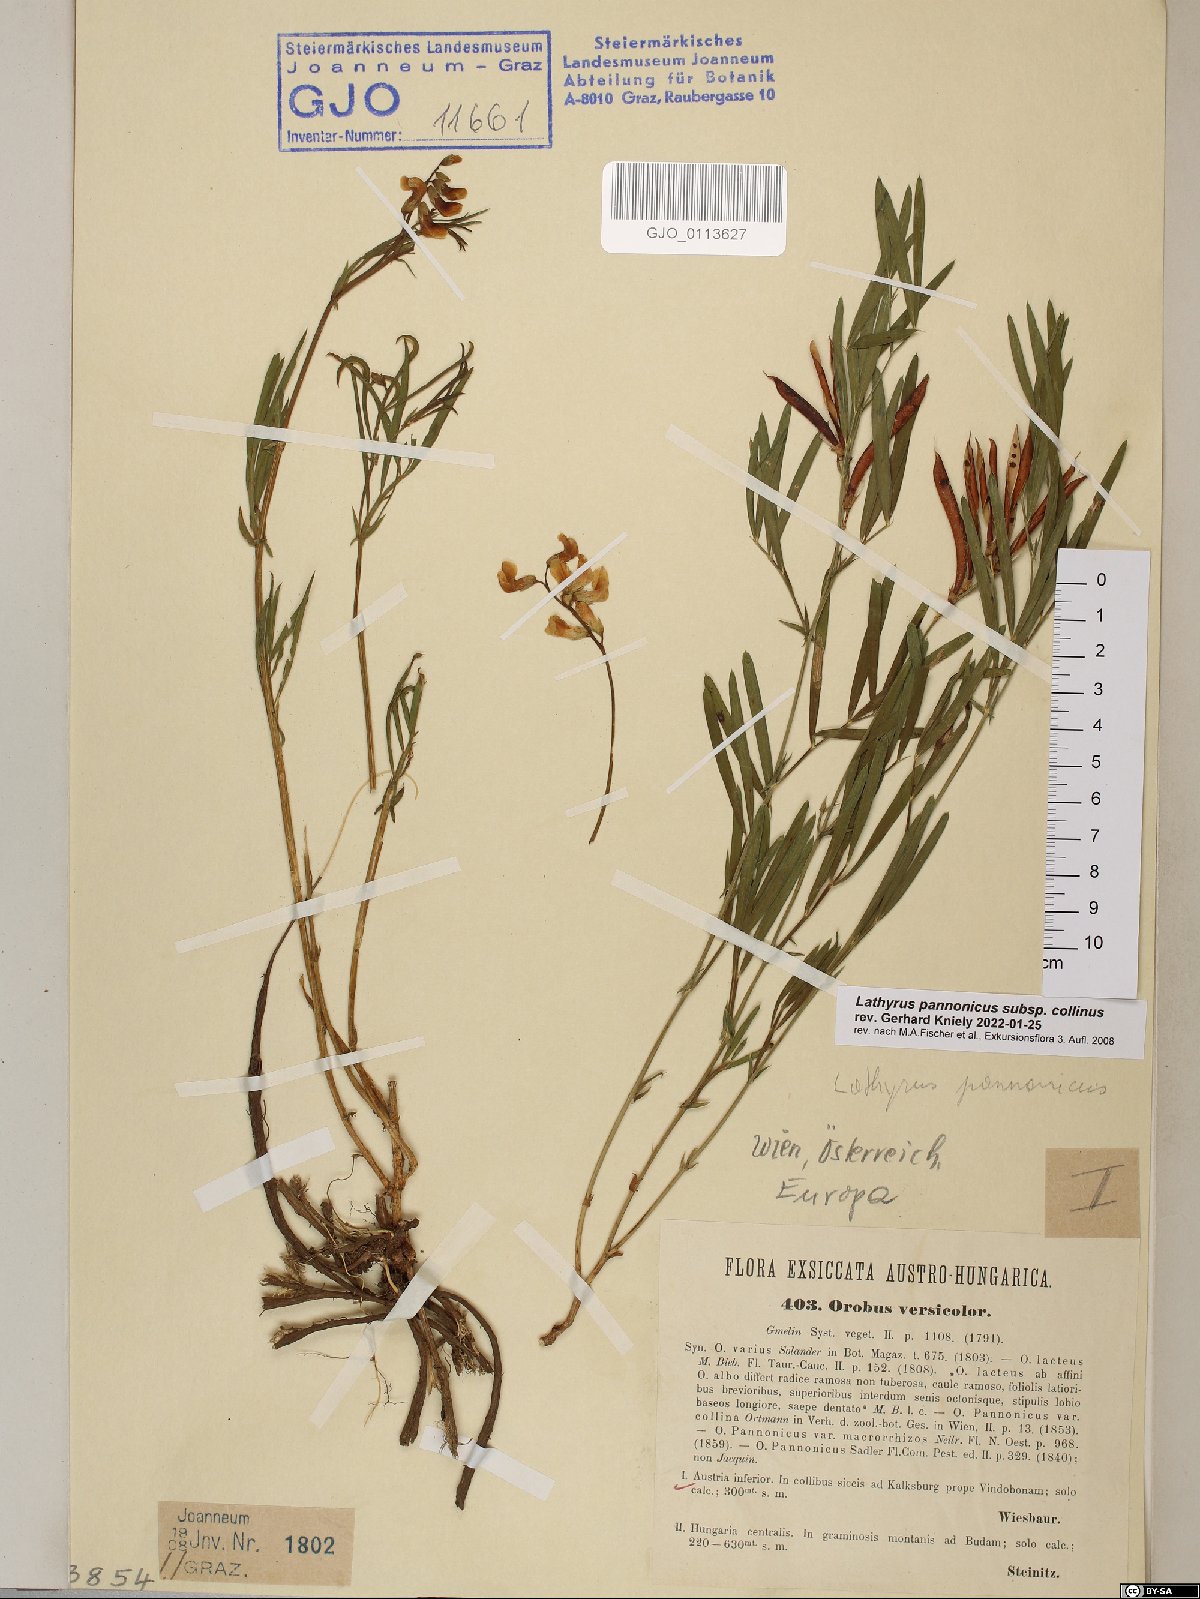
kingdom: Plantae
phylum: Tracheophyta
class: Magnoliopsida
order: Fabales
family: Fabaceae
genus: Lathyrus
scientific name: Lathyrus pannonicus
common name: Pea
